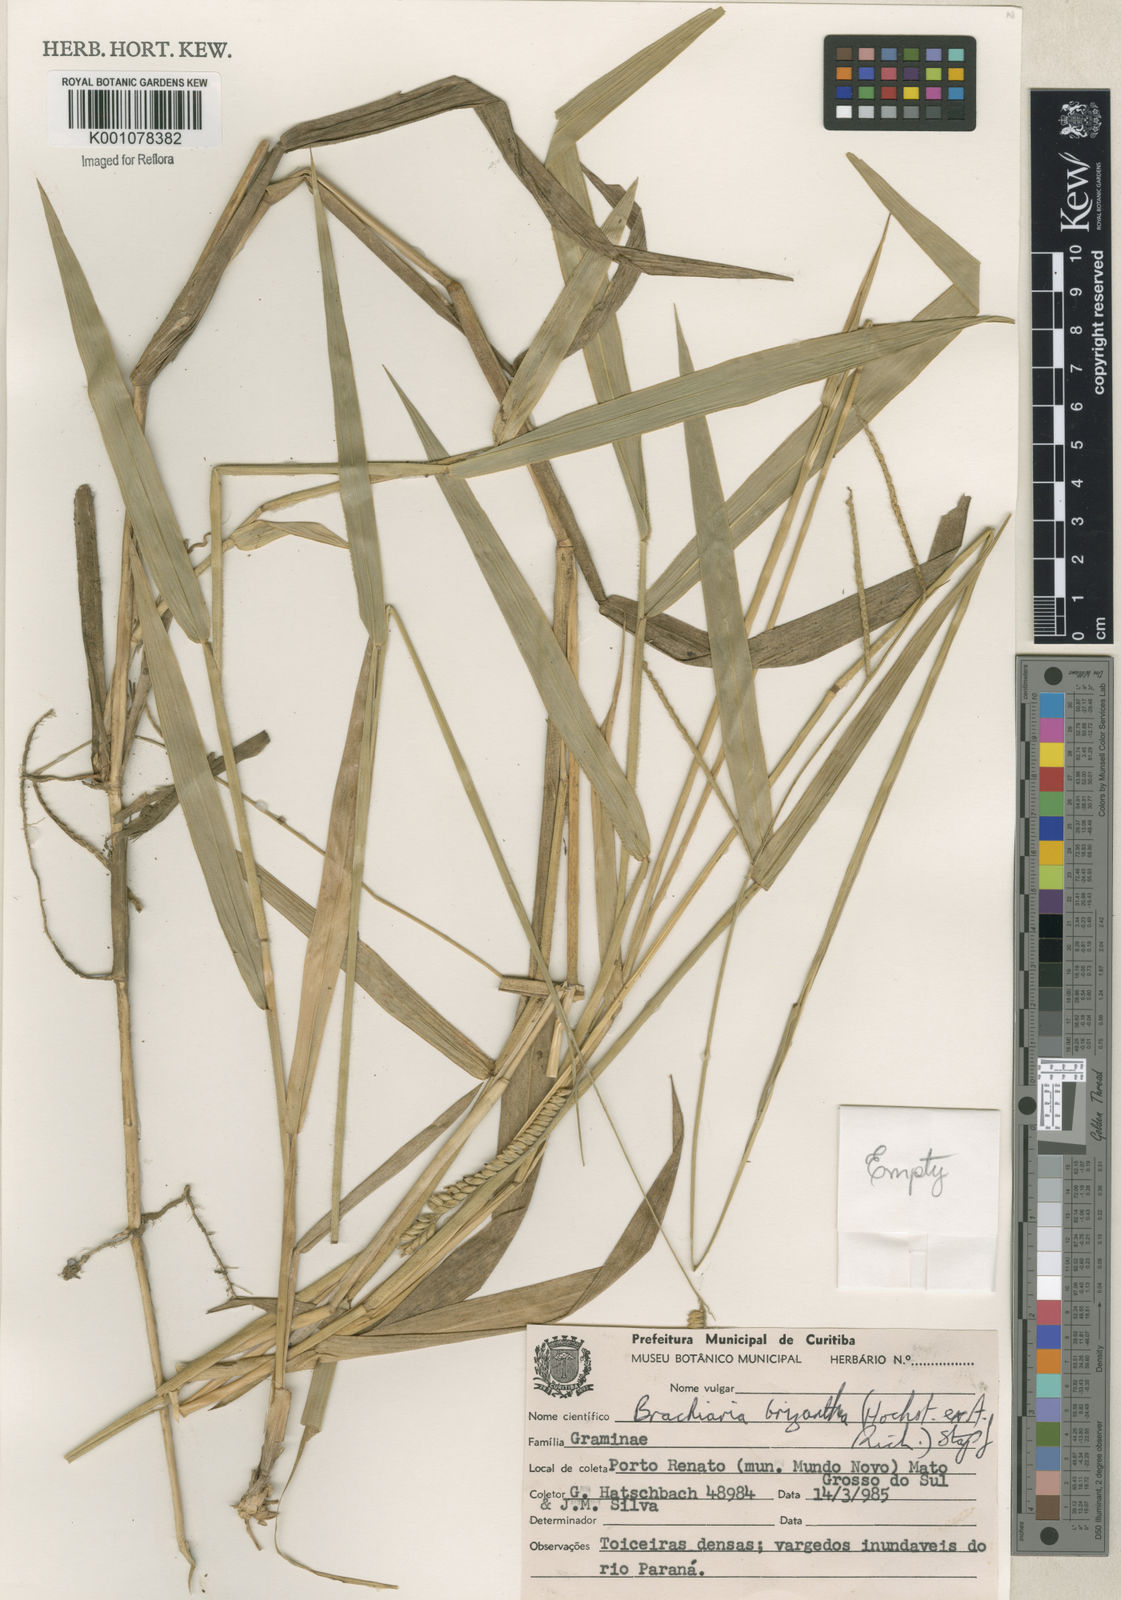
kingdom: Plantae
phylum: Tracheophyta
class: Liliopsida
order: Poales
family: Poaceae
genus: Urochloa
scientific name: Urochloa brizantha
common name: Palisade signalgrass
